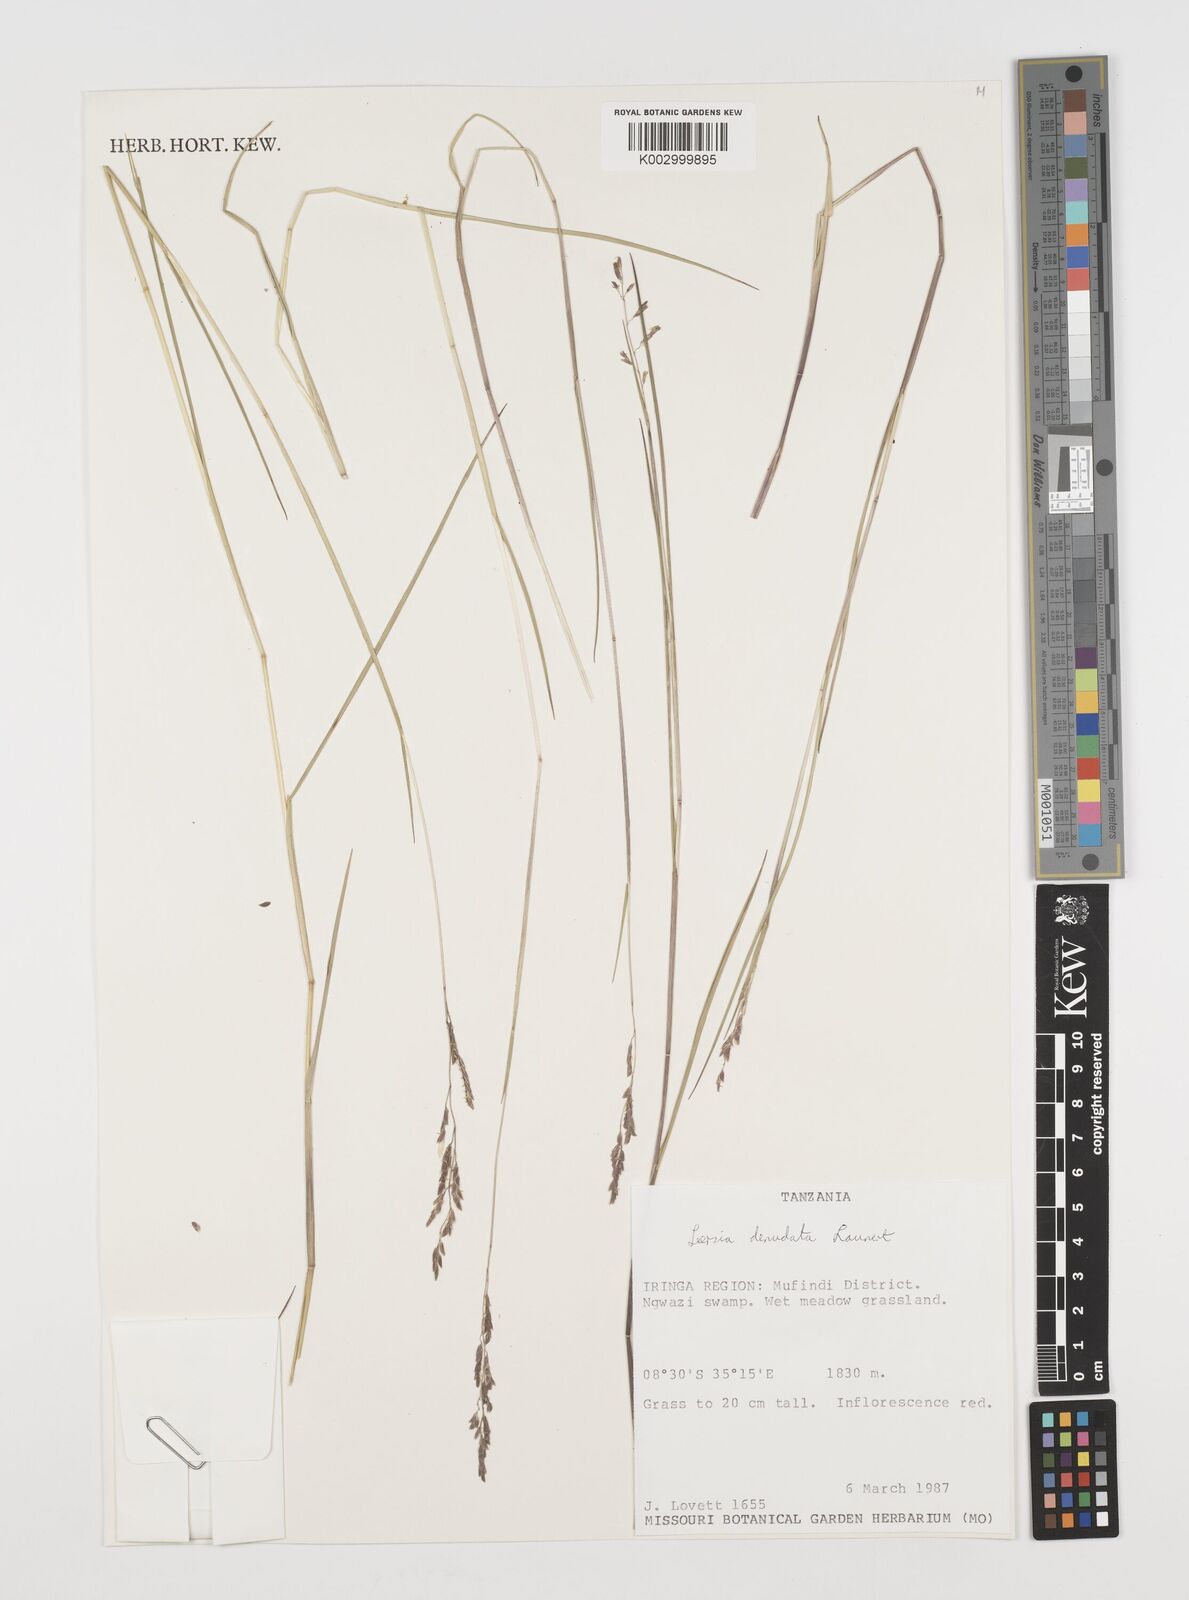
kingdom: Plantae
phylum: Tracheophyta
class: Liliopsida
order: Poales
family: Poaceae
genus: Leersia
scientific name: Leersia denudata
